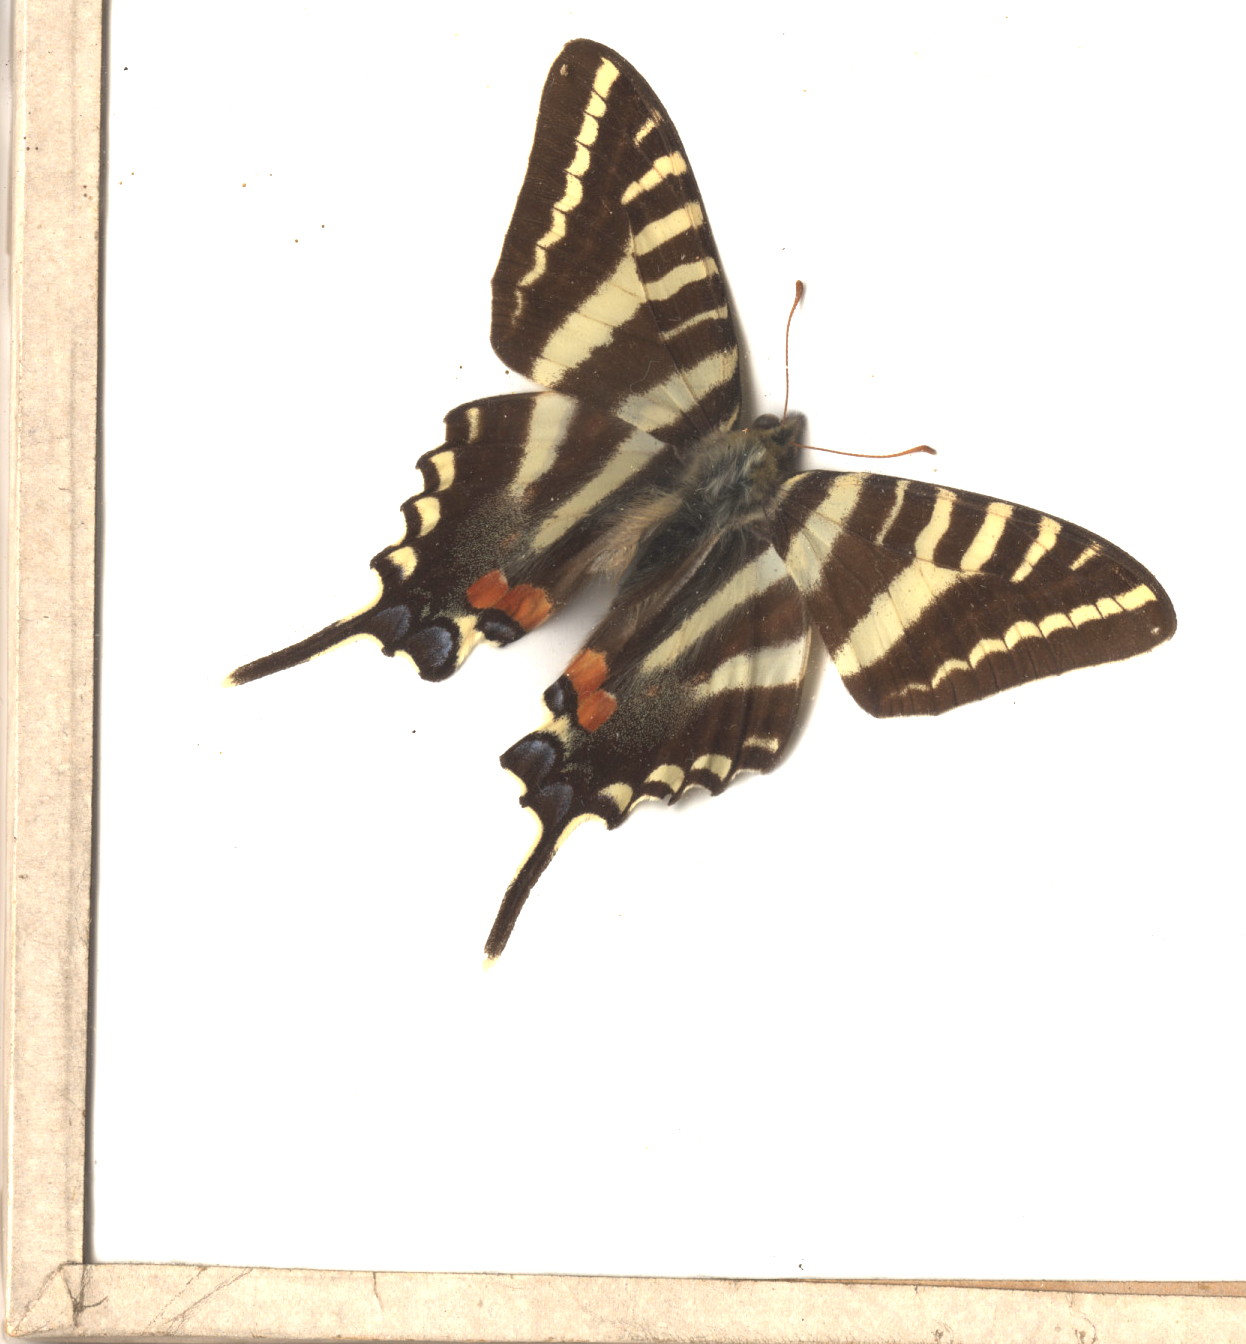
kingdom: Animalia
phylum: Arthropoda
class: Insecta
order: Lepidoptera
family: Papilionidae
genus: Protographium
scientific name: Protographium marcellus
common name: Zebra Swallowtail
